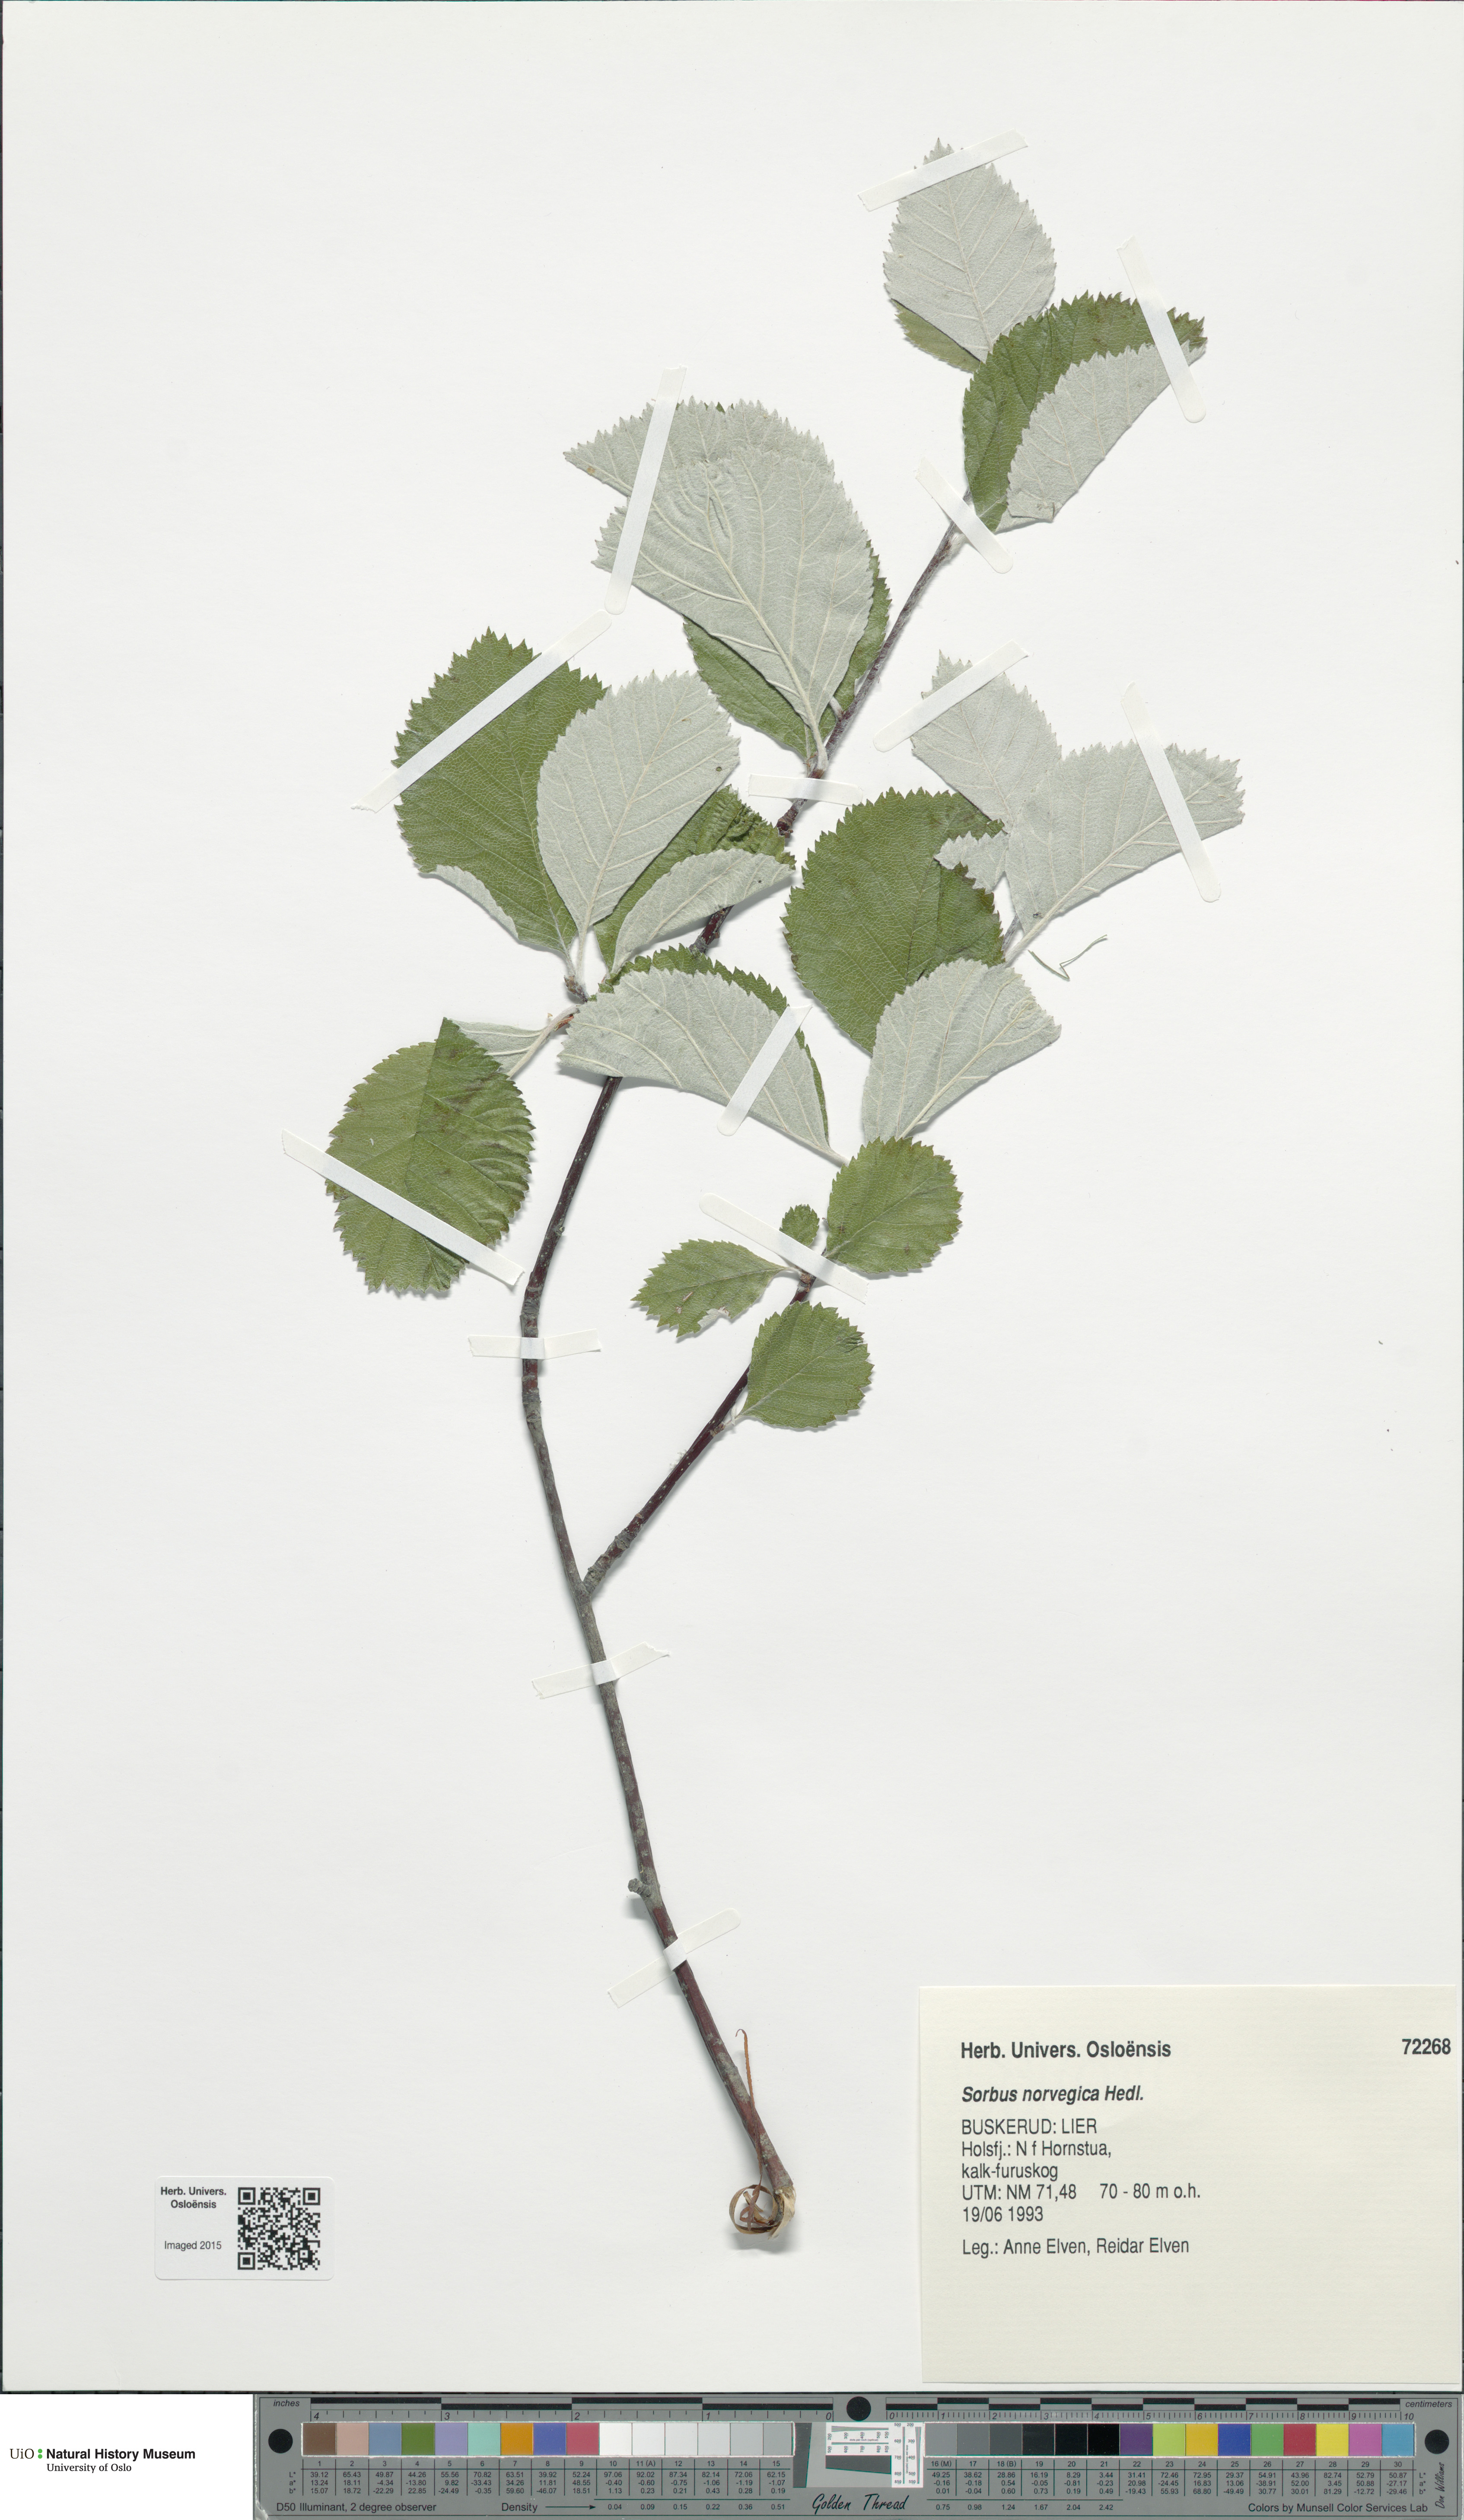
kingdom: Plantae
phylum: Tracheophyta
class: Magnoliopsida
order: Rosales
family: Rosaceae
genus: Aria
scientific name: Aria obtusifolia
